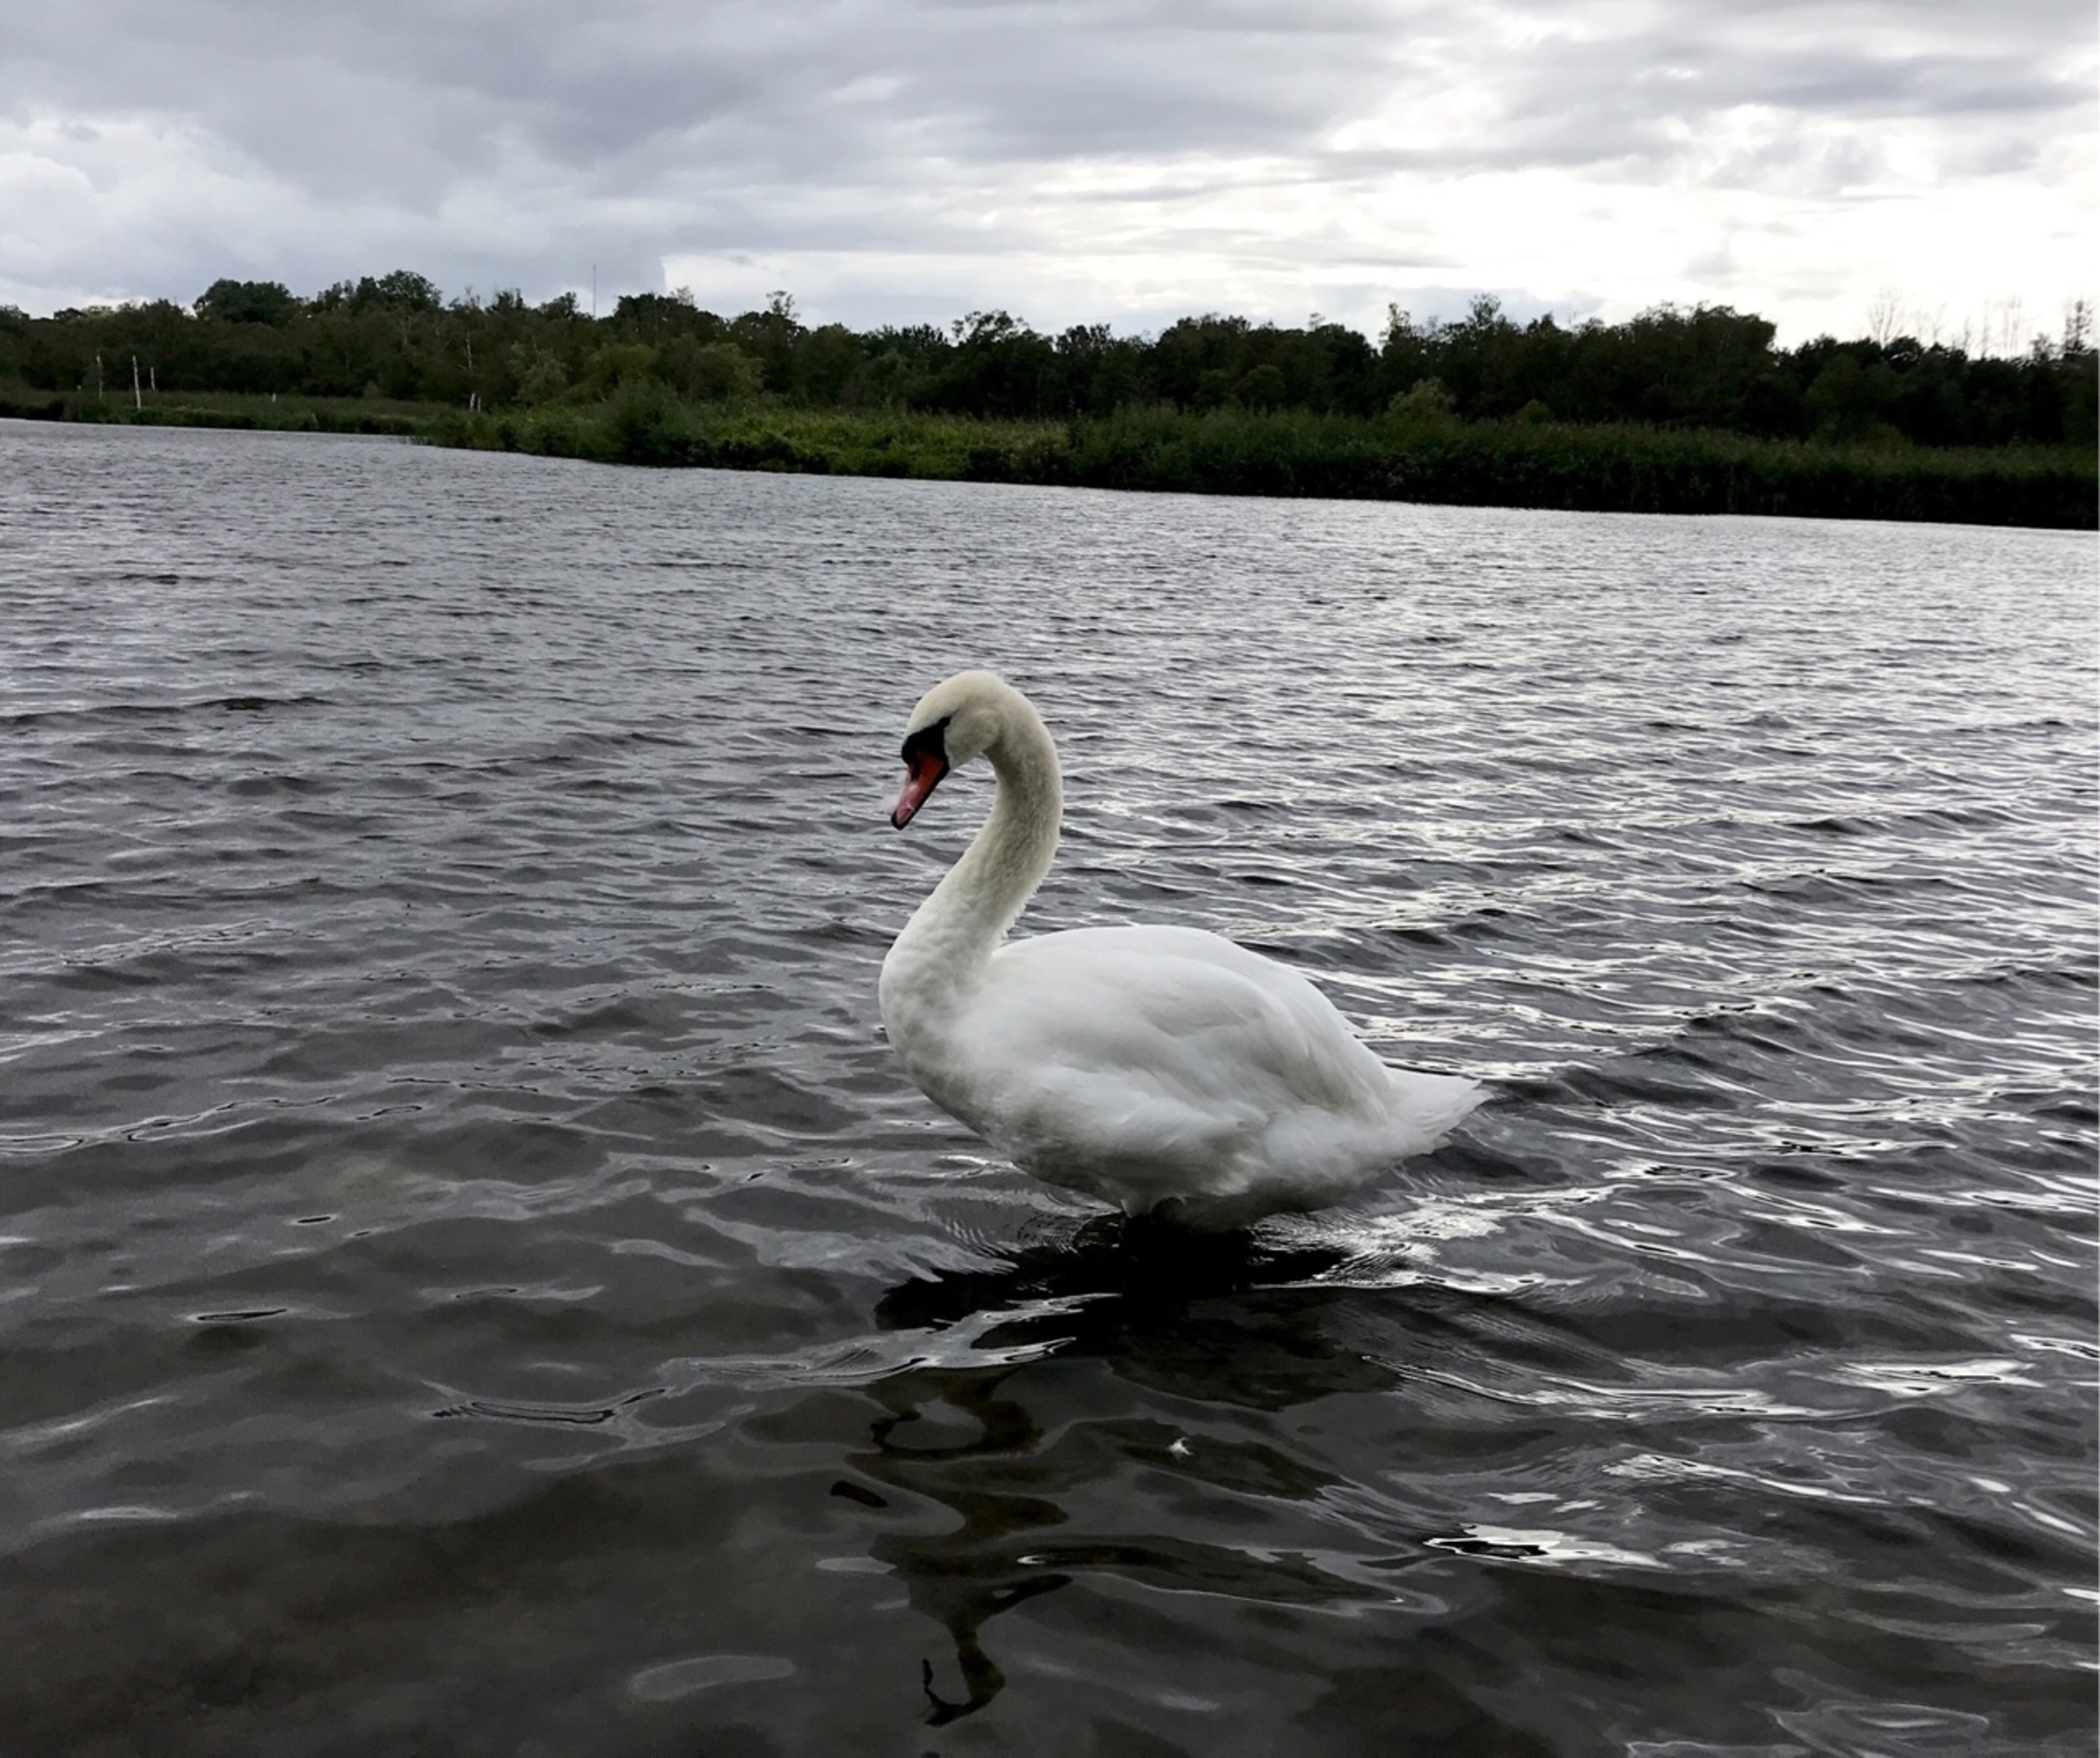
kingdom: Animalia
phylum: Chordata
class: Aves
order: Anseriformes
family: Anatidae
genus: Cygnus
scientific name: Cygnus olor
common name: Knopsvane
